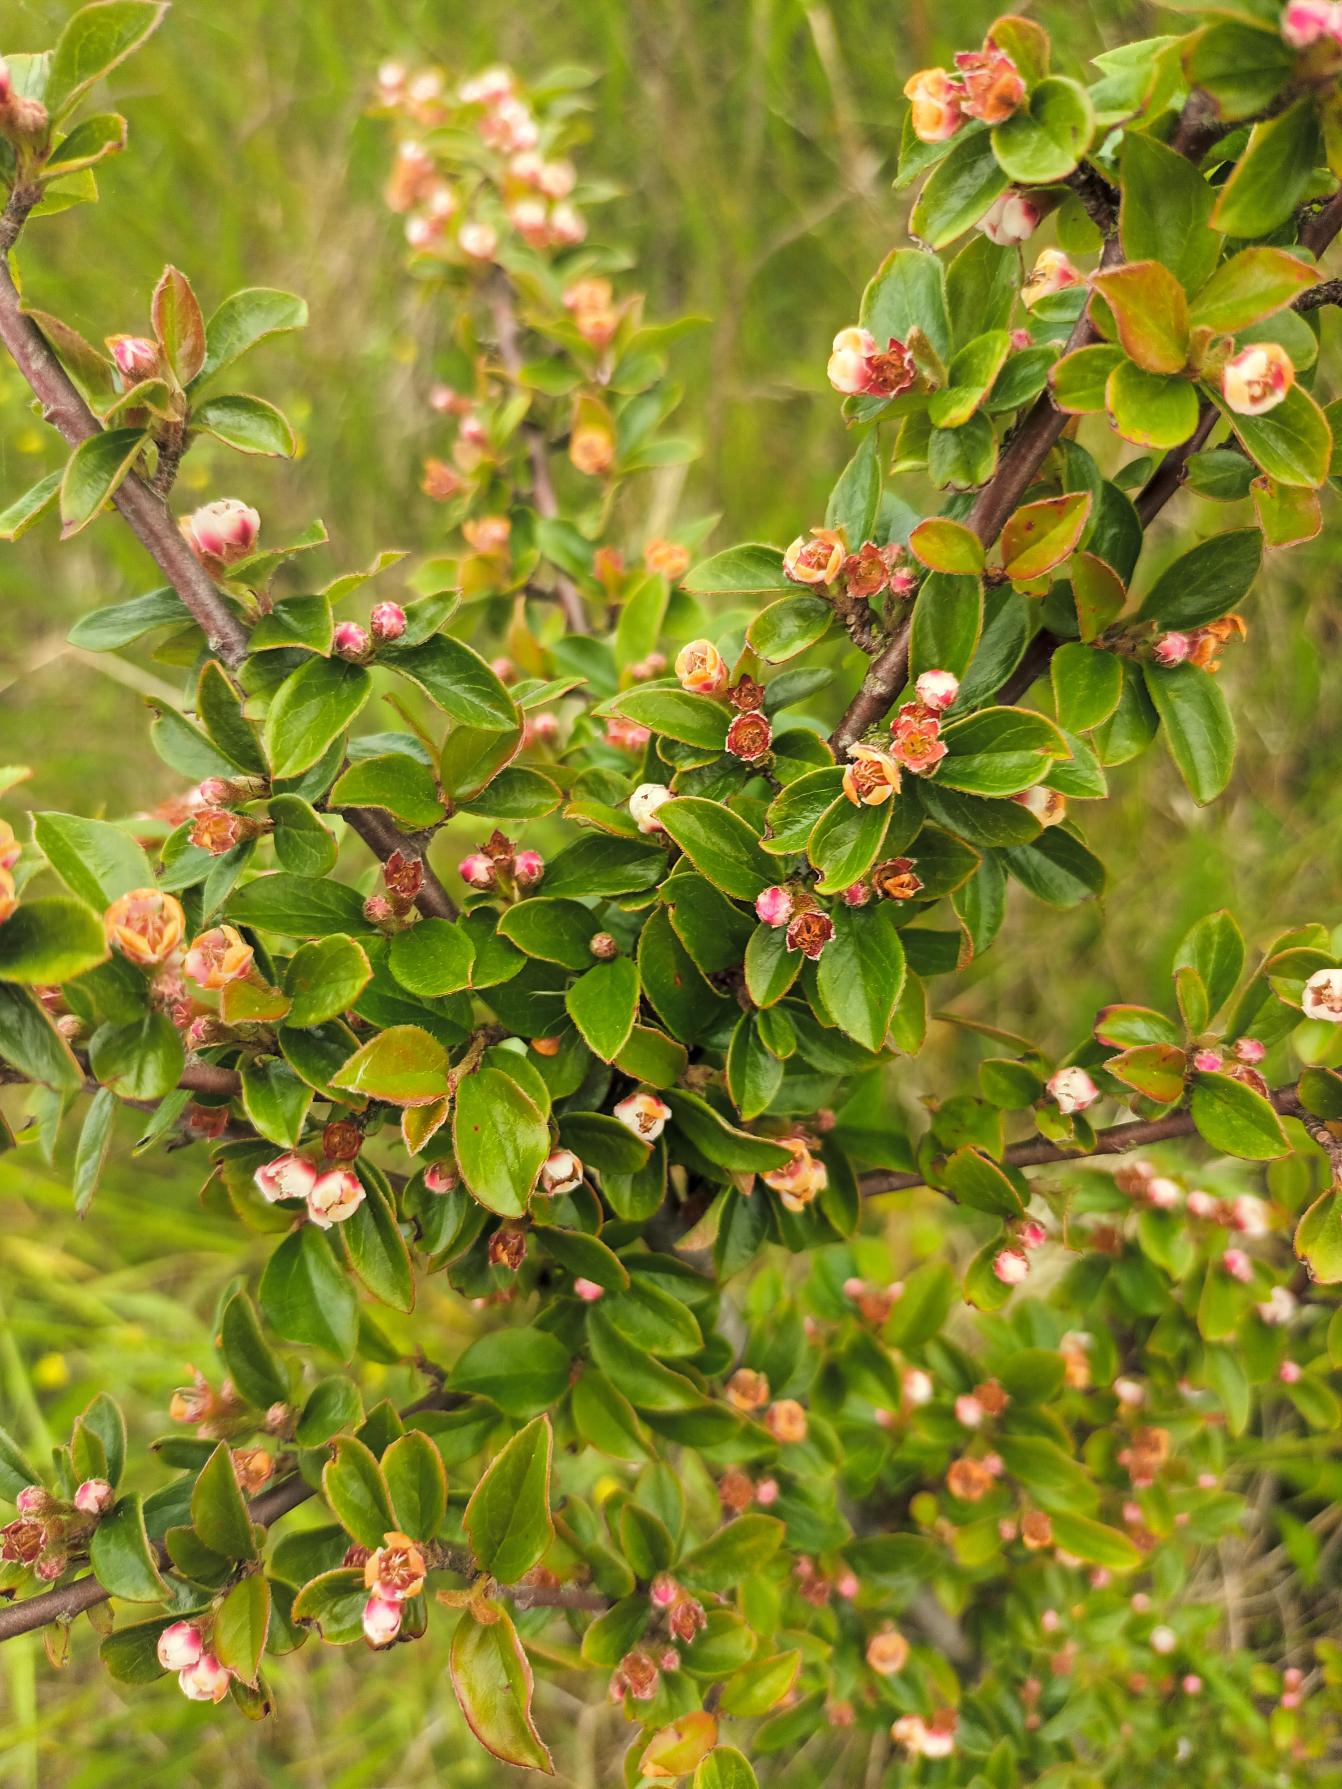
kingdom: Plantae
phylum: Tracheophyta
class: Magnoliopsida
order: Rosales
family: Rosaceae
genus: Cotoneaster
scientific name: Cotoneaster adpressus
